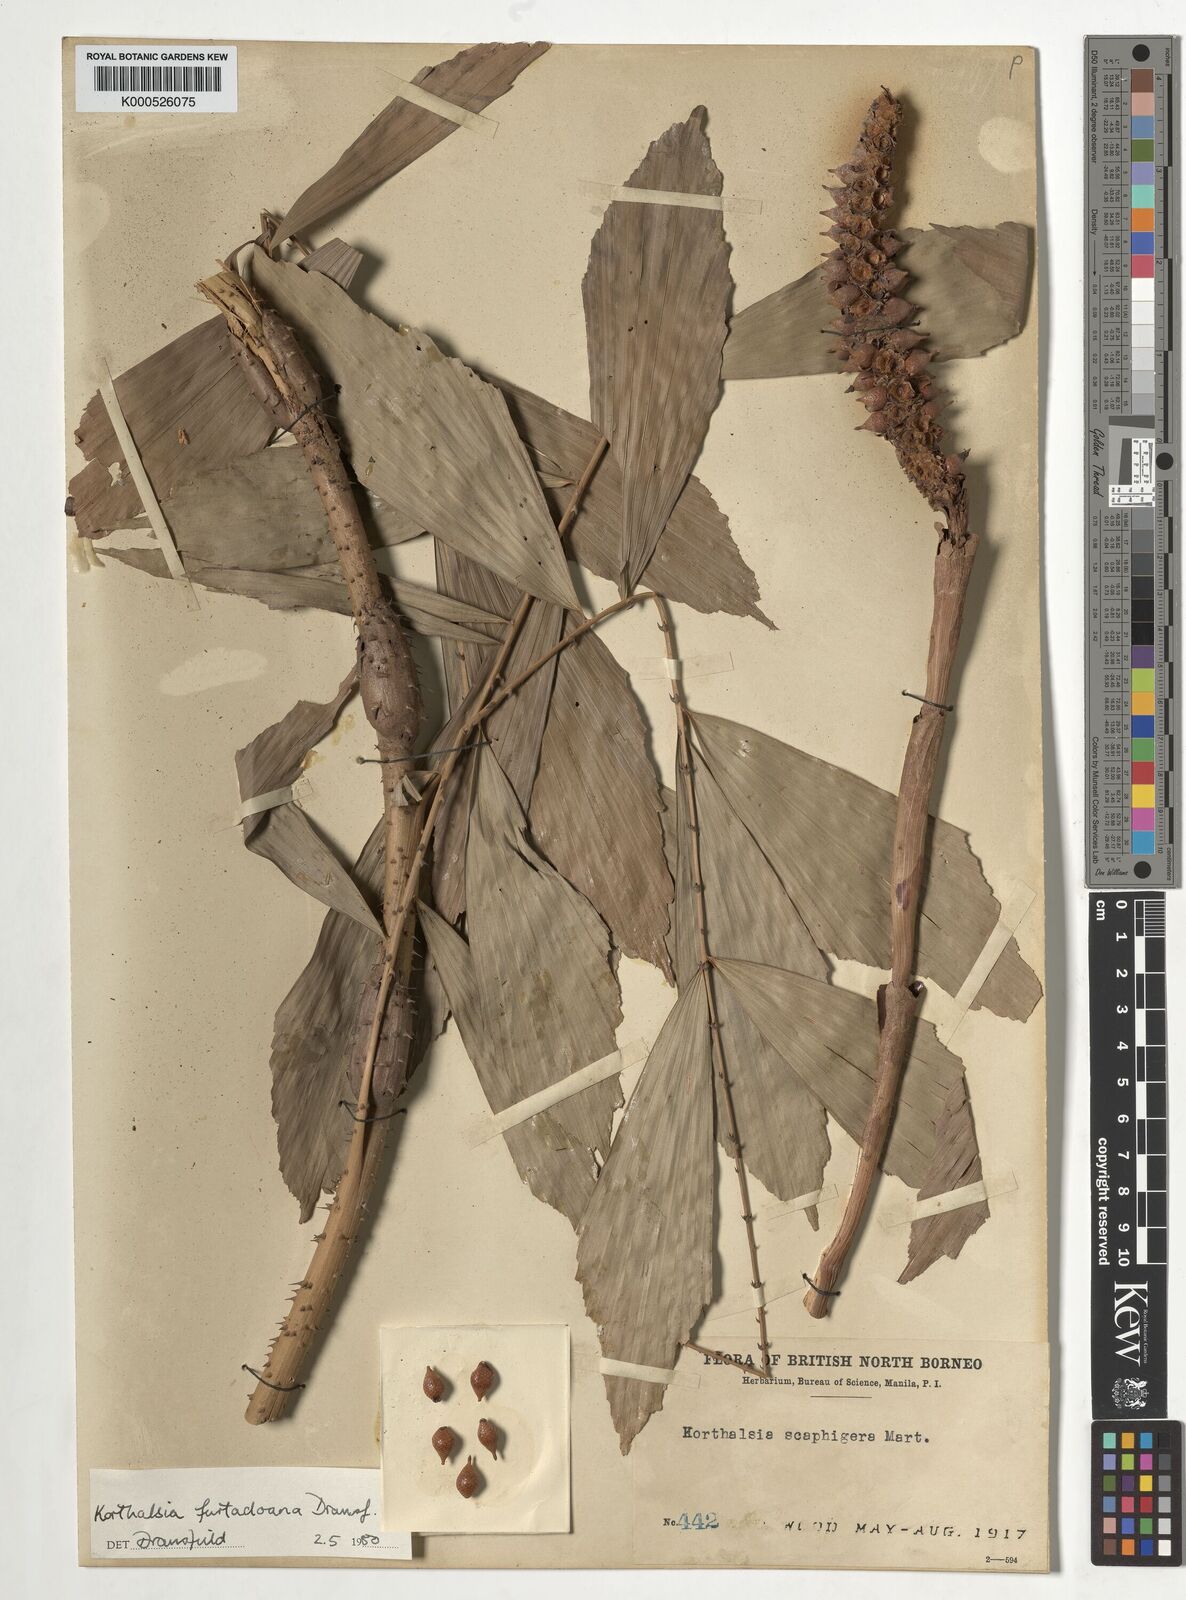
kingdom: Plantae
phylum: Tracheophyta
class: Liliopsida
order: Arecales
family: Arecaceae
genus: Korthalsia
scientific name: Korthalsia furtadoana
